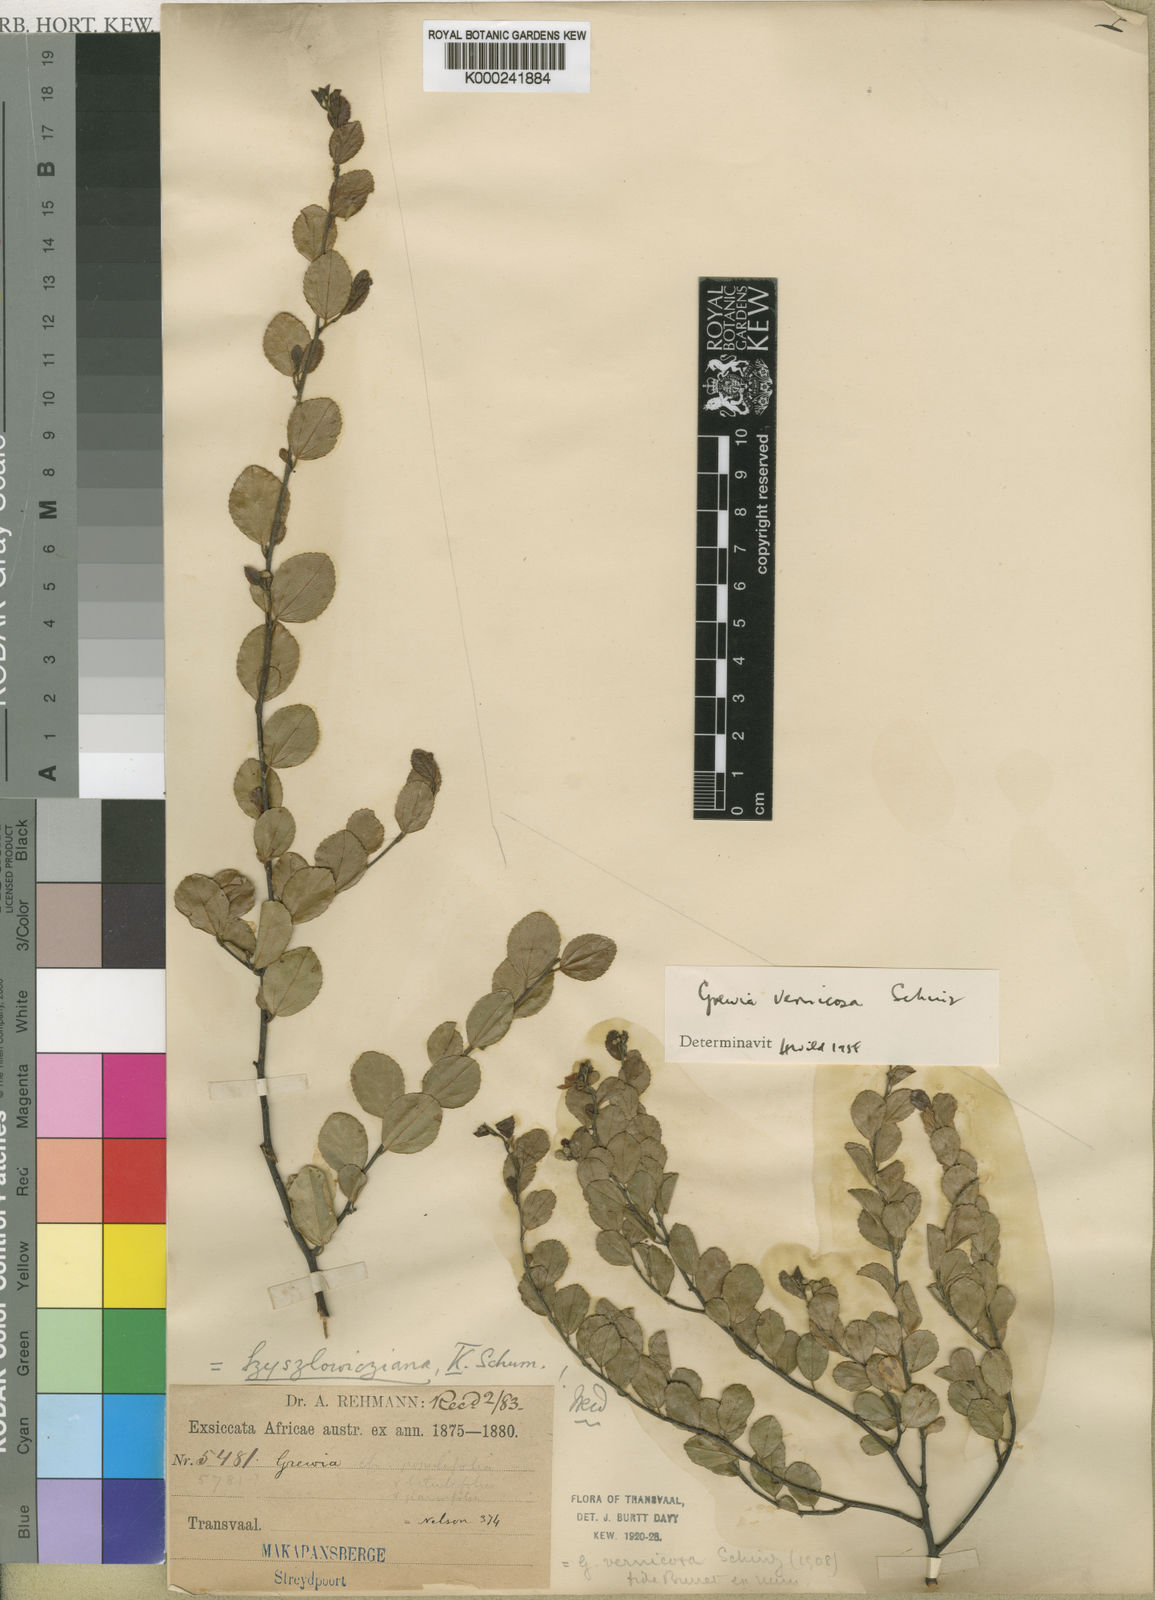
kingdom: Plantae
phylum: Tracheophyta
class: Magnoliopsida
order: Malvales
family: Malvaceae
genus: Grewia
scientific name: Grewia vernicosa
